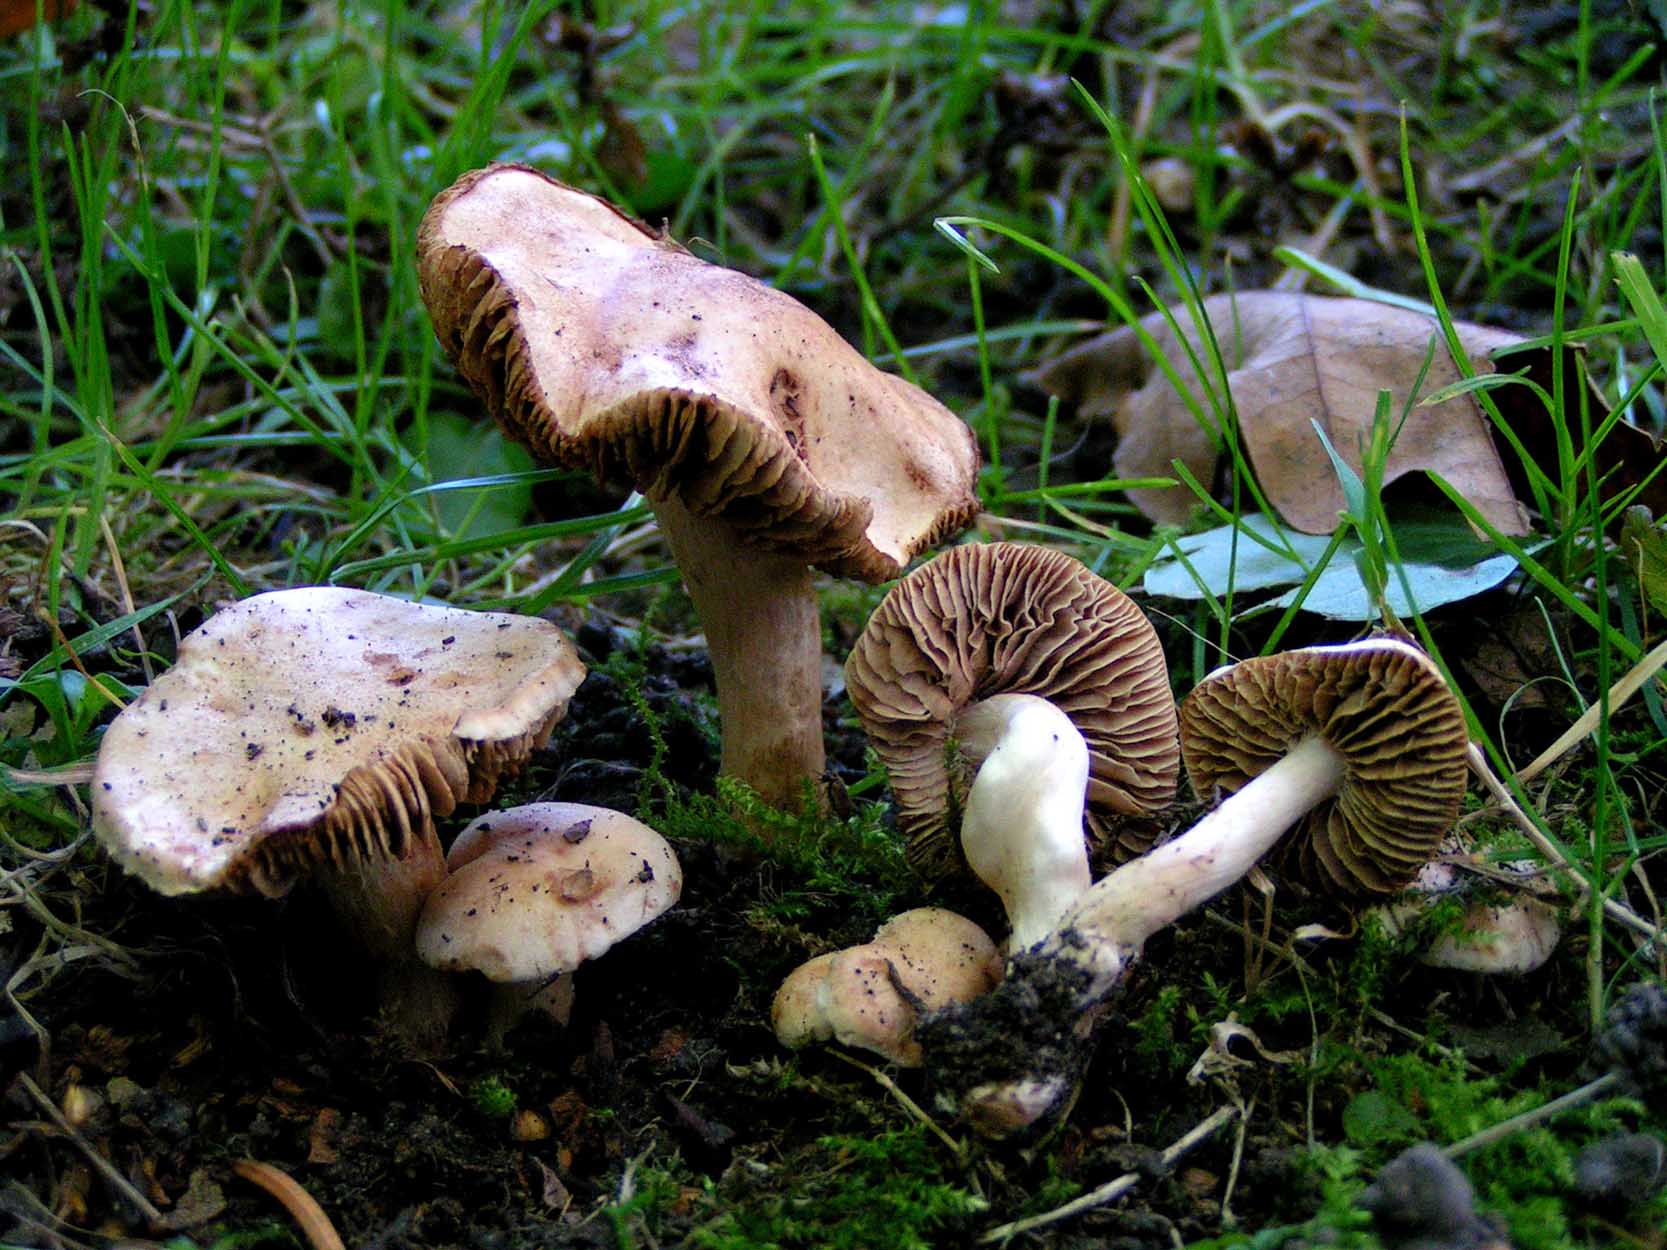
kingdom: Fungi
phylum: Basidiomycota
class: Agaricomycetes
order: Agaricales
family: Hymenogastraceae
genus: Hebeloma
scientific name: Hebeloma sacchariolens
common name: sødtduftende tåreblad
